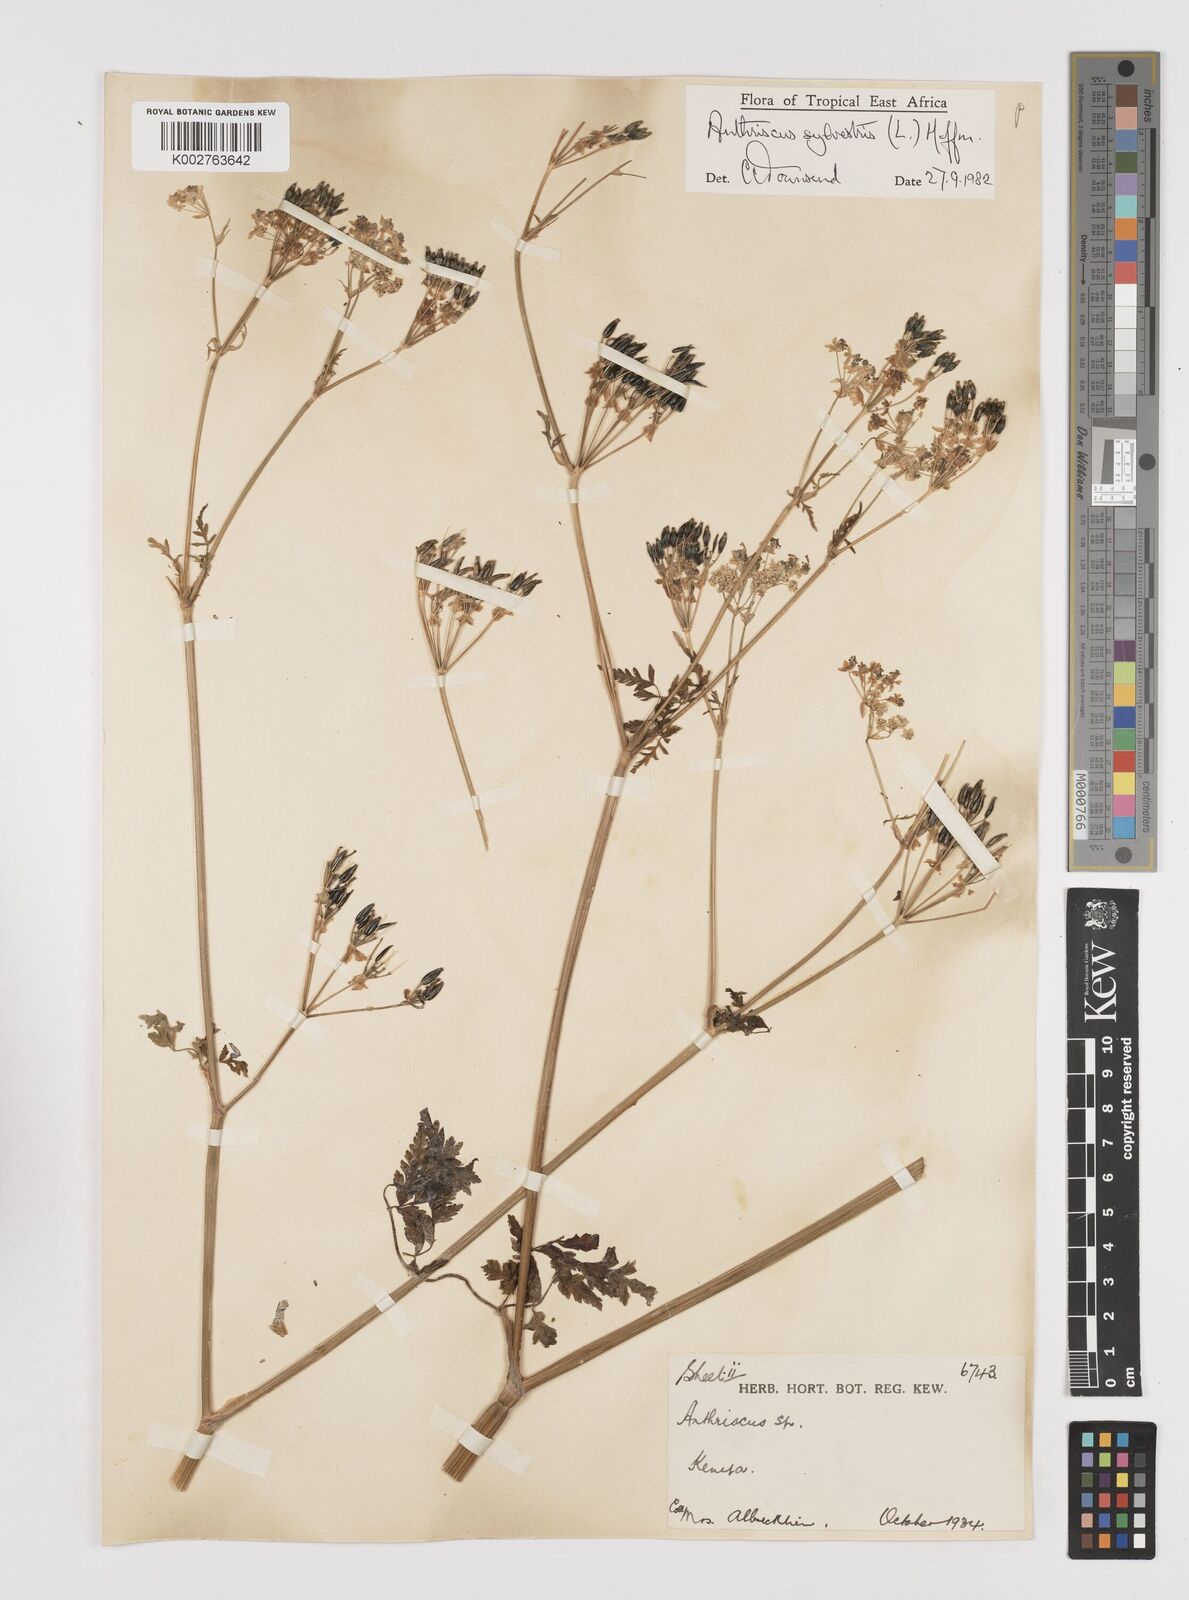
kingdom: Plantae
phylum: Tracheophyta
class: Magnoliopsida
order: Apiales
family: Apiaceae
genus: Anthriscus
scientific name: Anthriscus sylvestris
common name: Cow parsley
